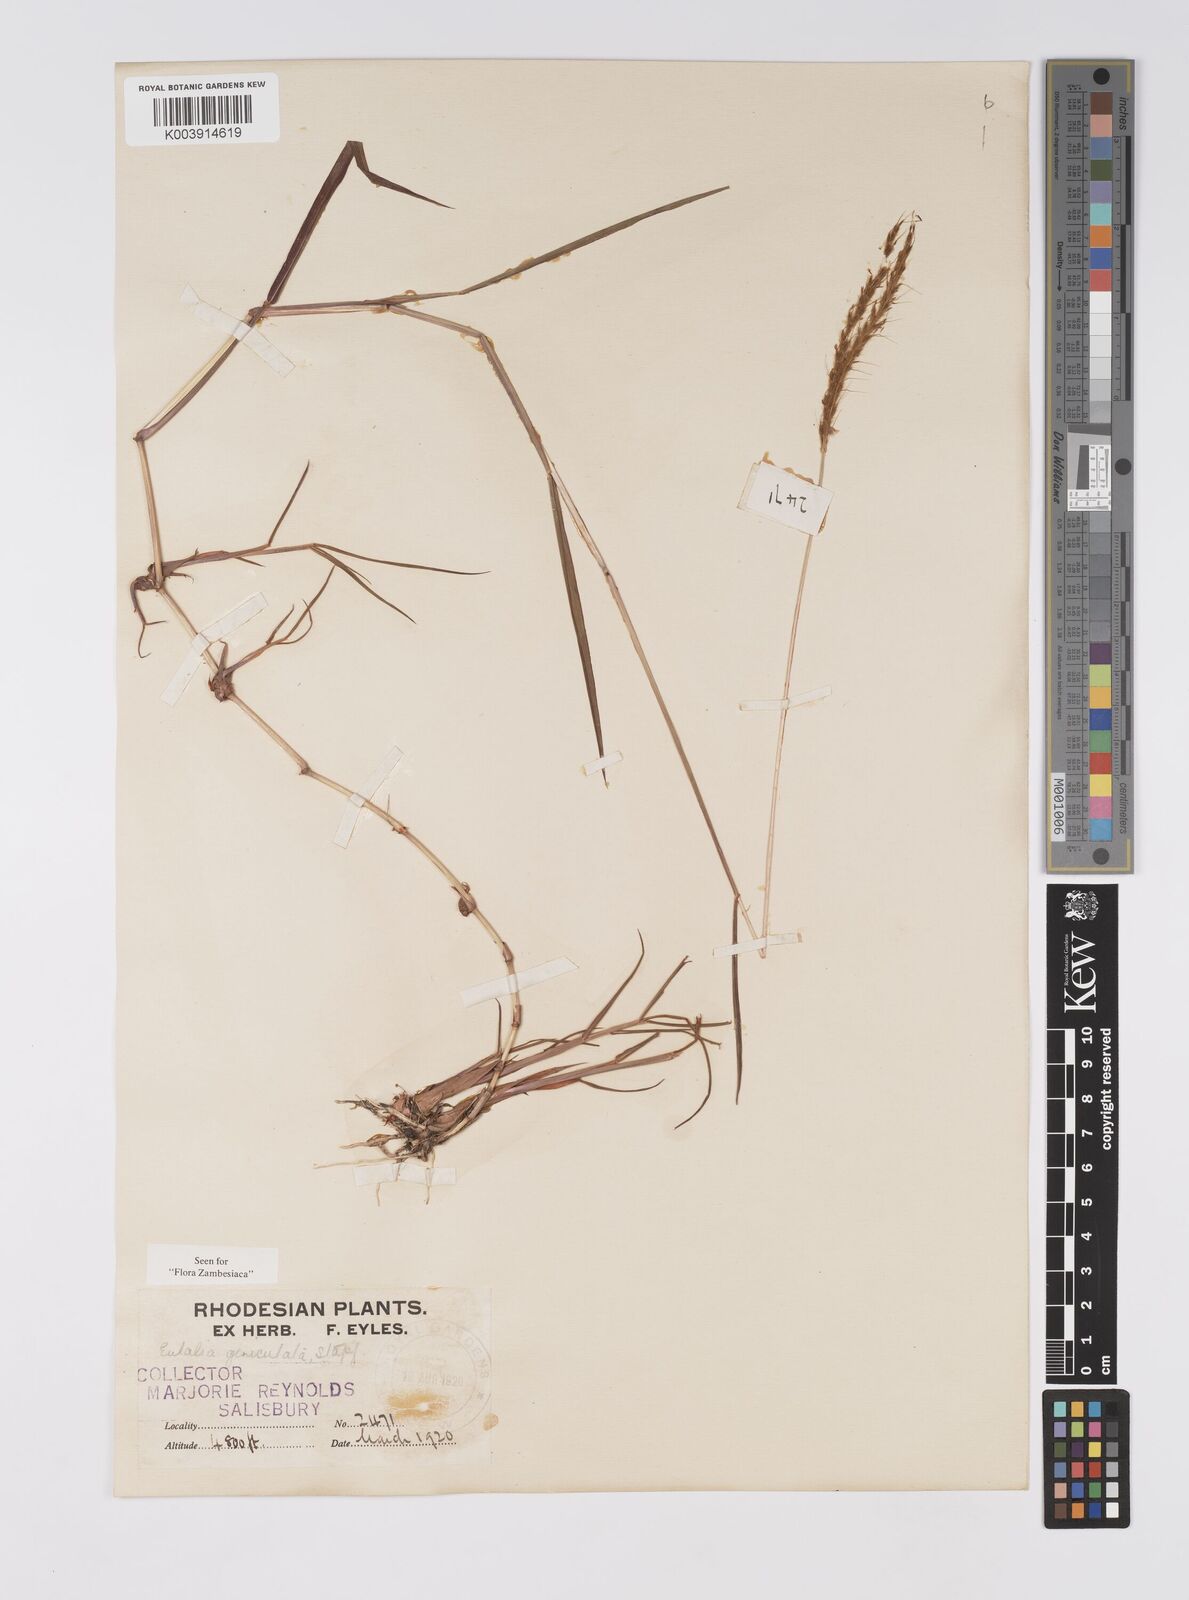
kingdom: Plantae
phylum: Tracheophyta
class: Liliopsida
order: Poales
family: Poaceae
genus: Eulalia
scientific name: Eulalia aurea
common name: Silky browntop
